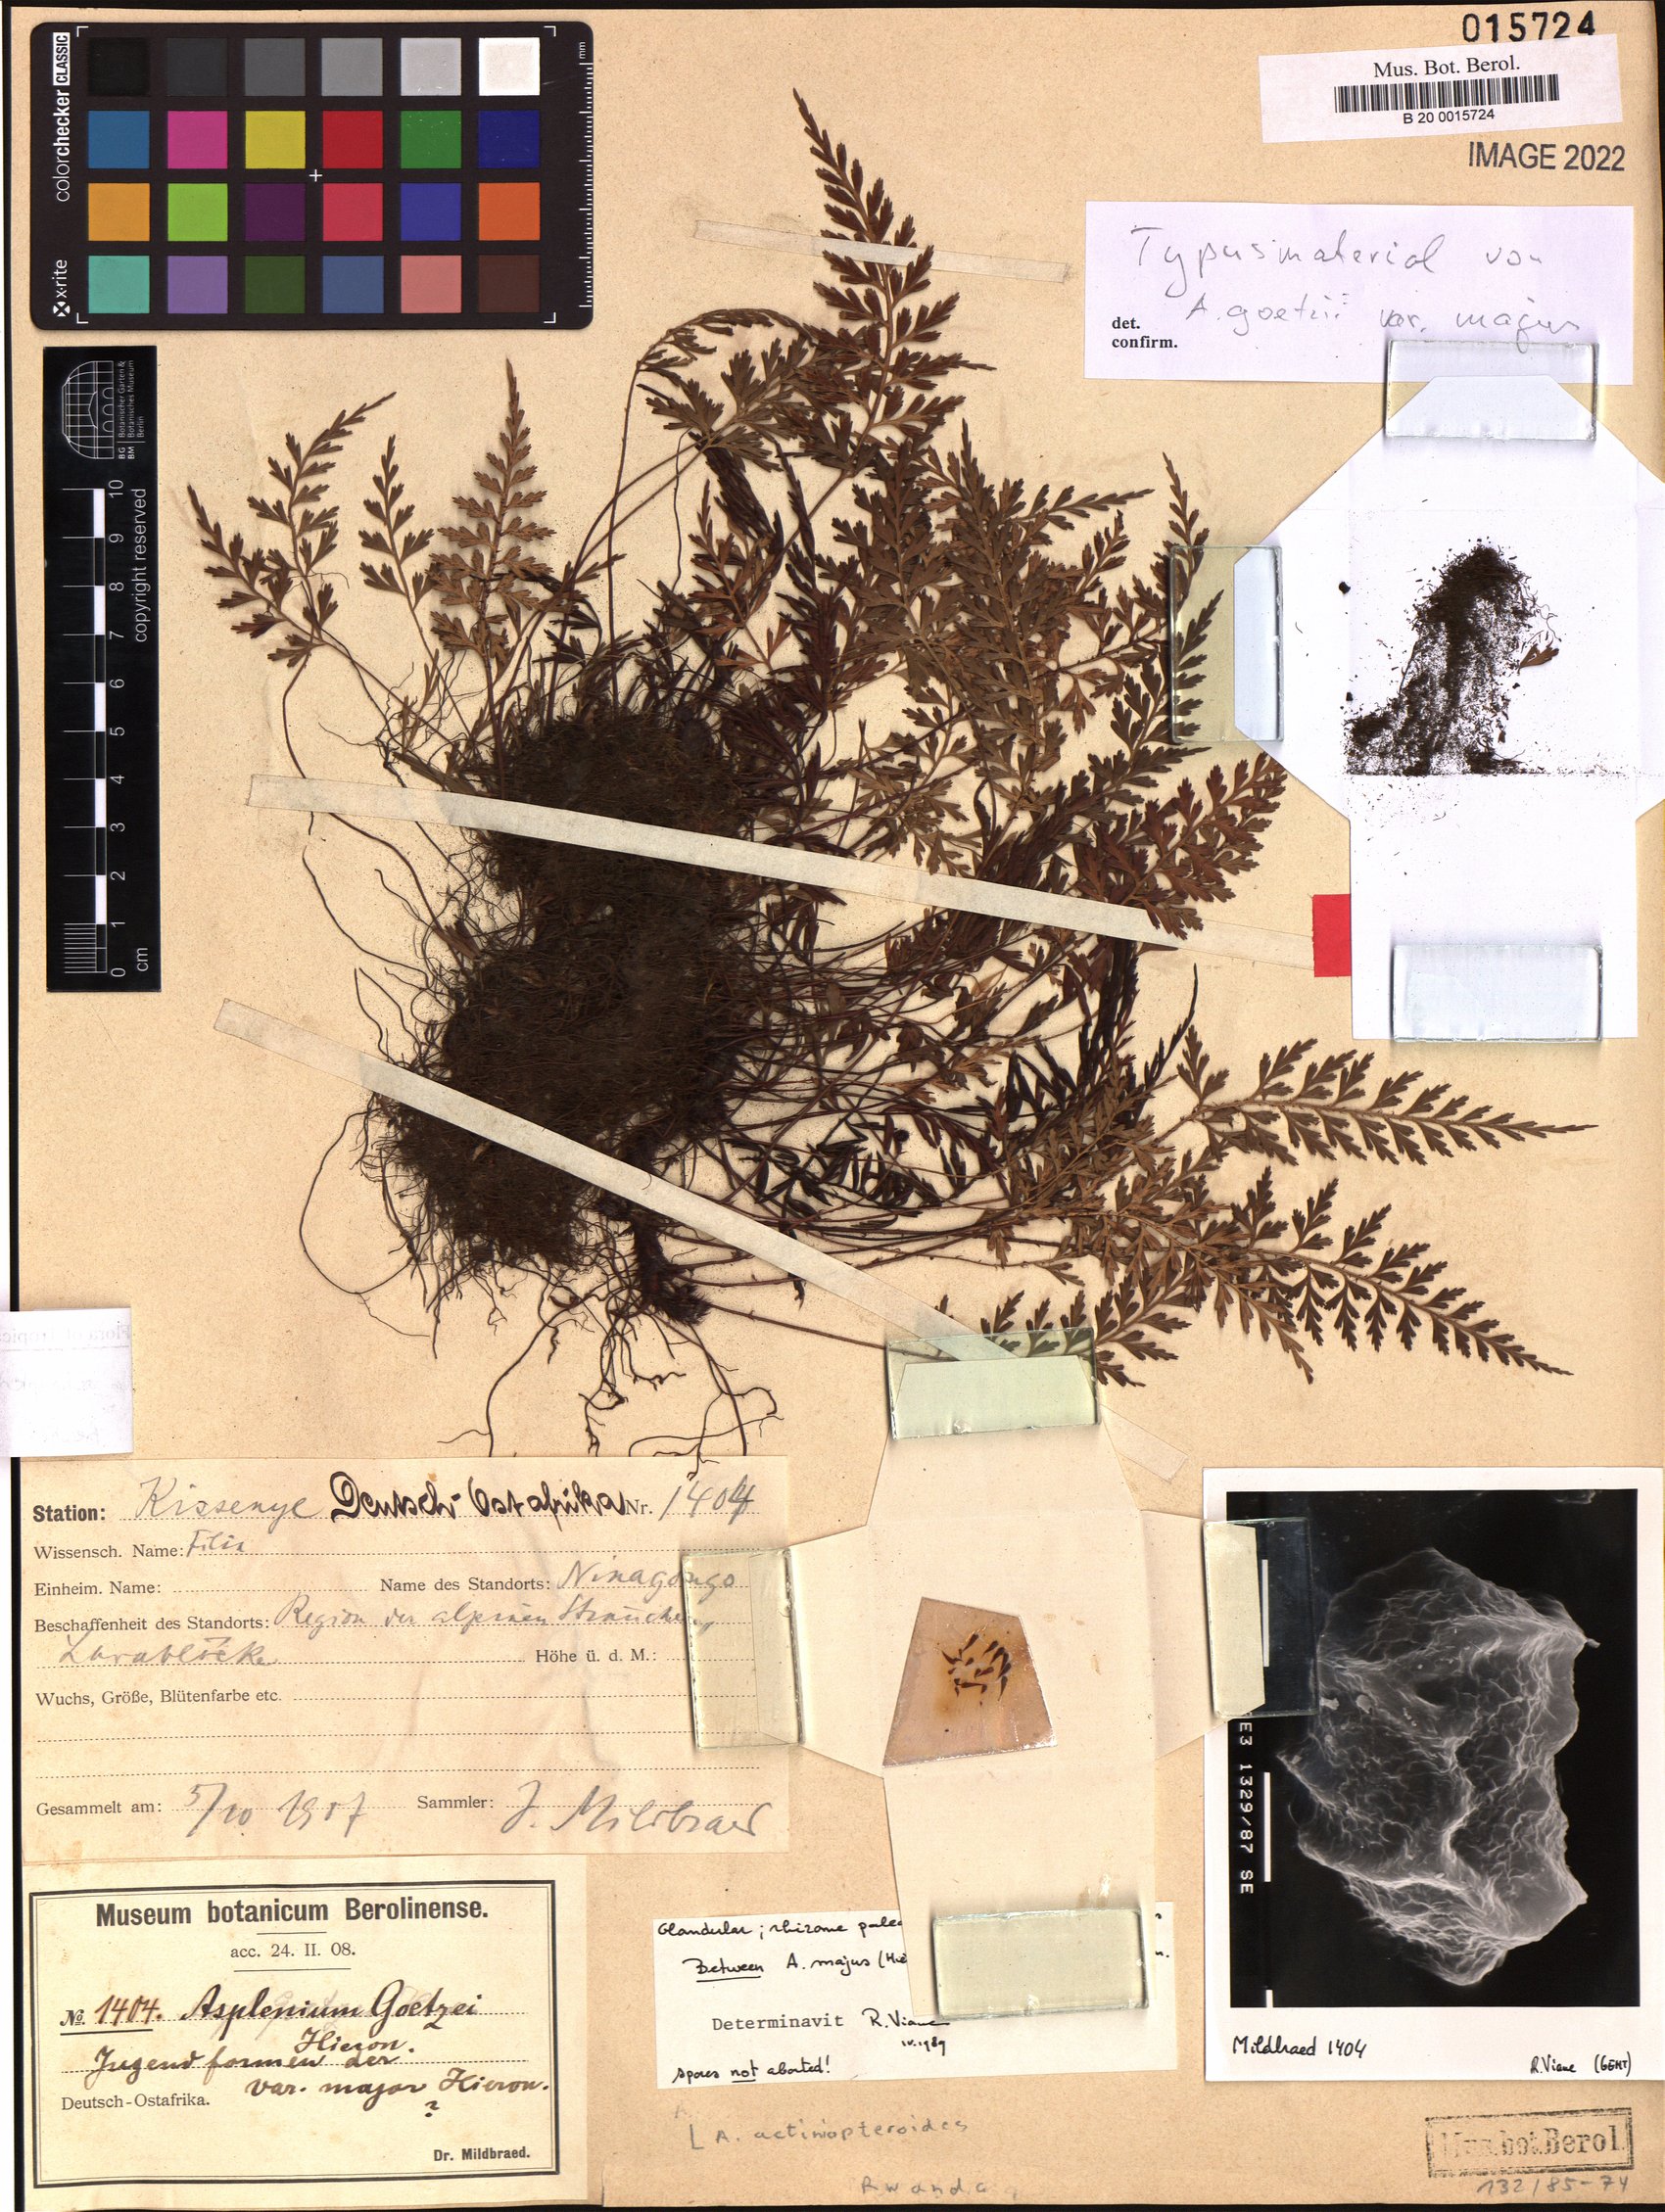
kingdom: Plantae
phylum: Tracheophyta
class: Polypodiopsida
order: Polypodiales
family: Aspleniaceae
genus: Asplenium
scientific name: Asplenium actiniopteroides
